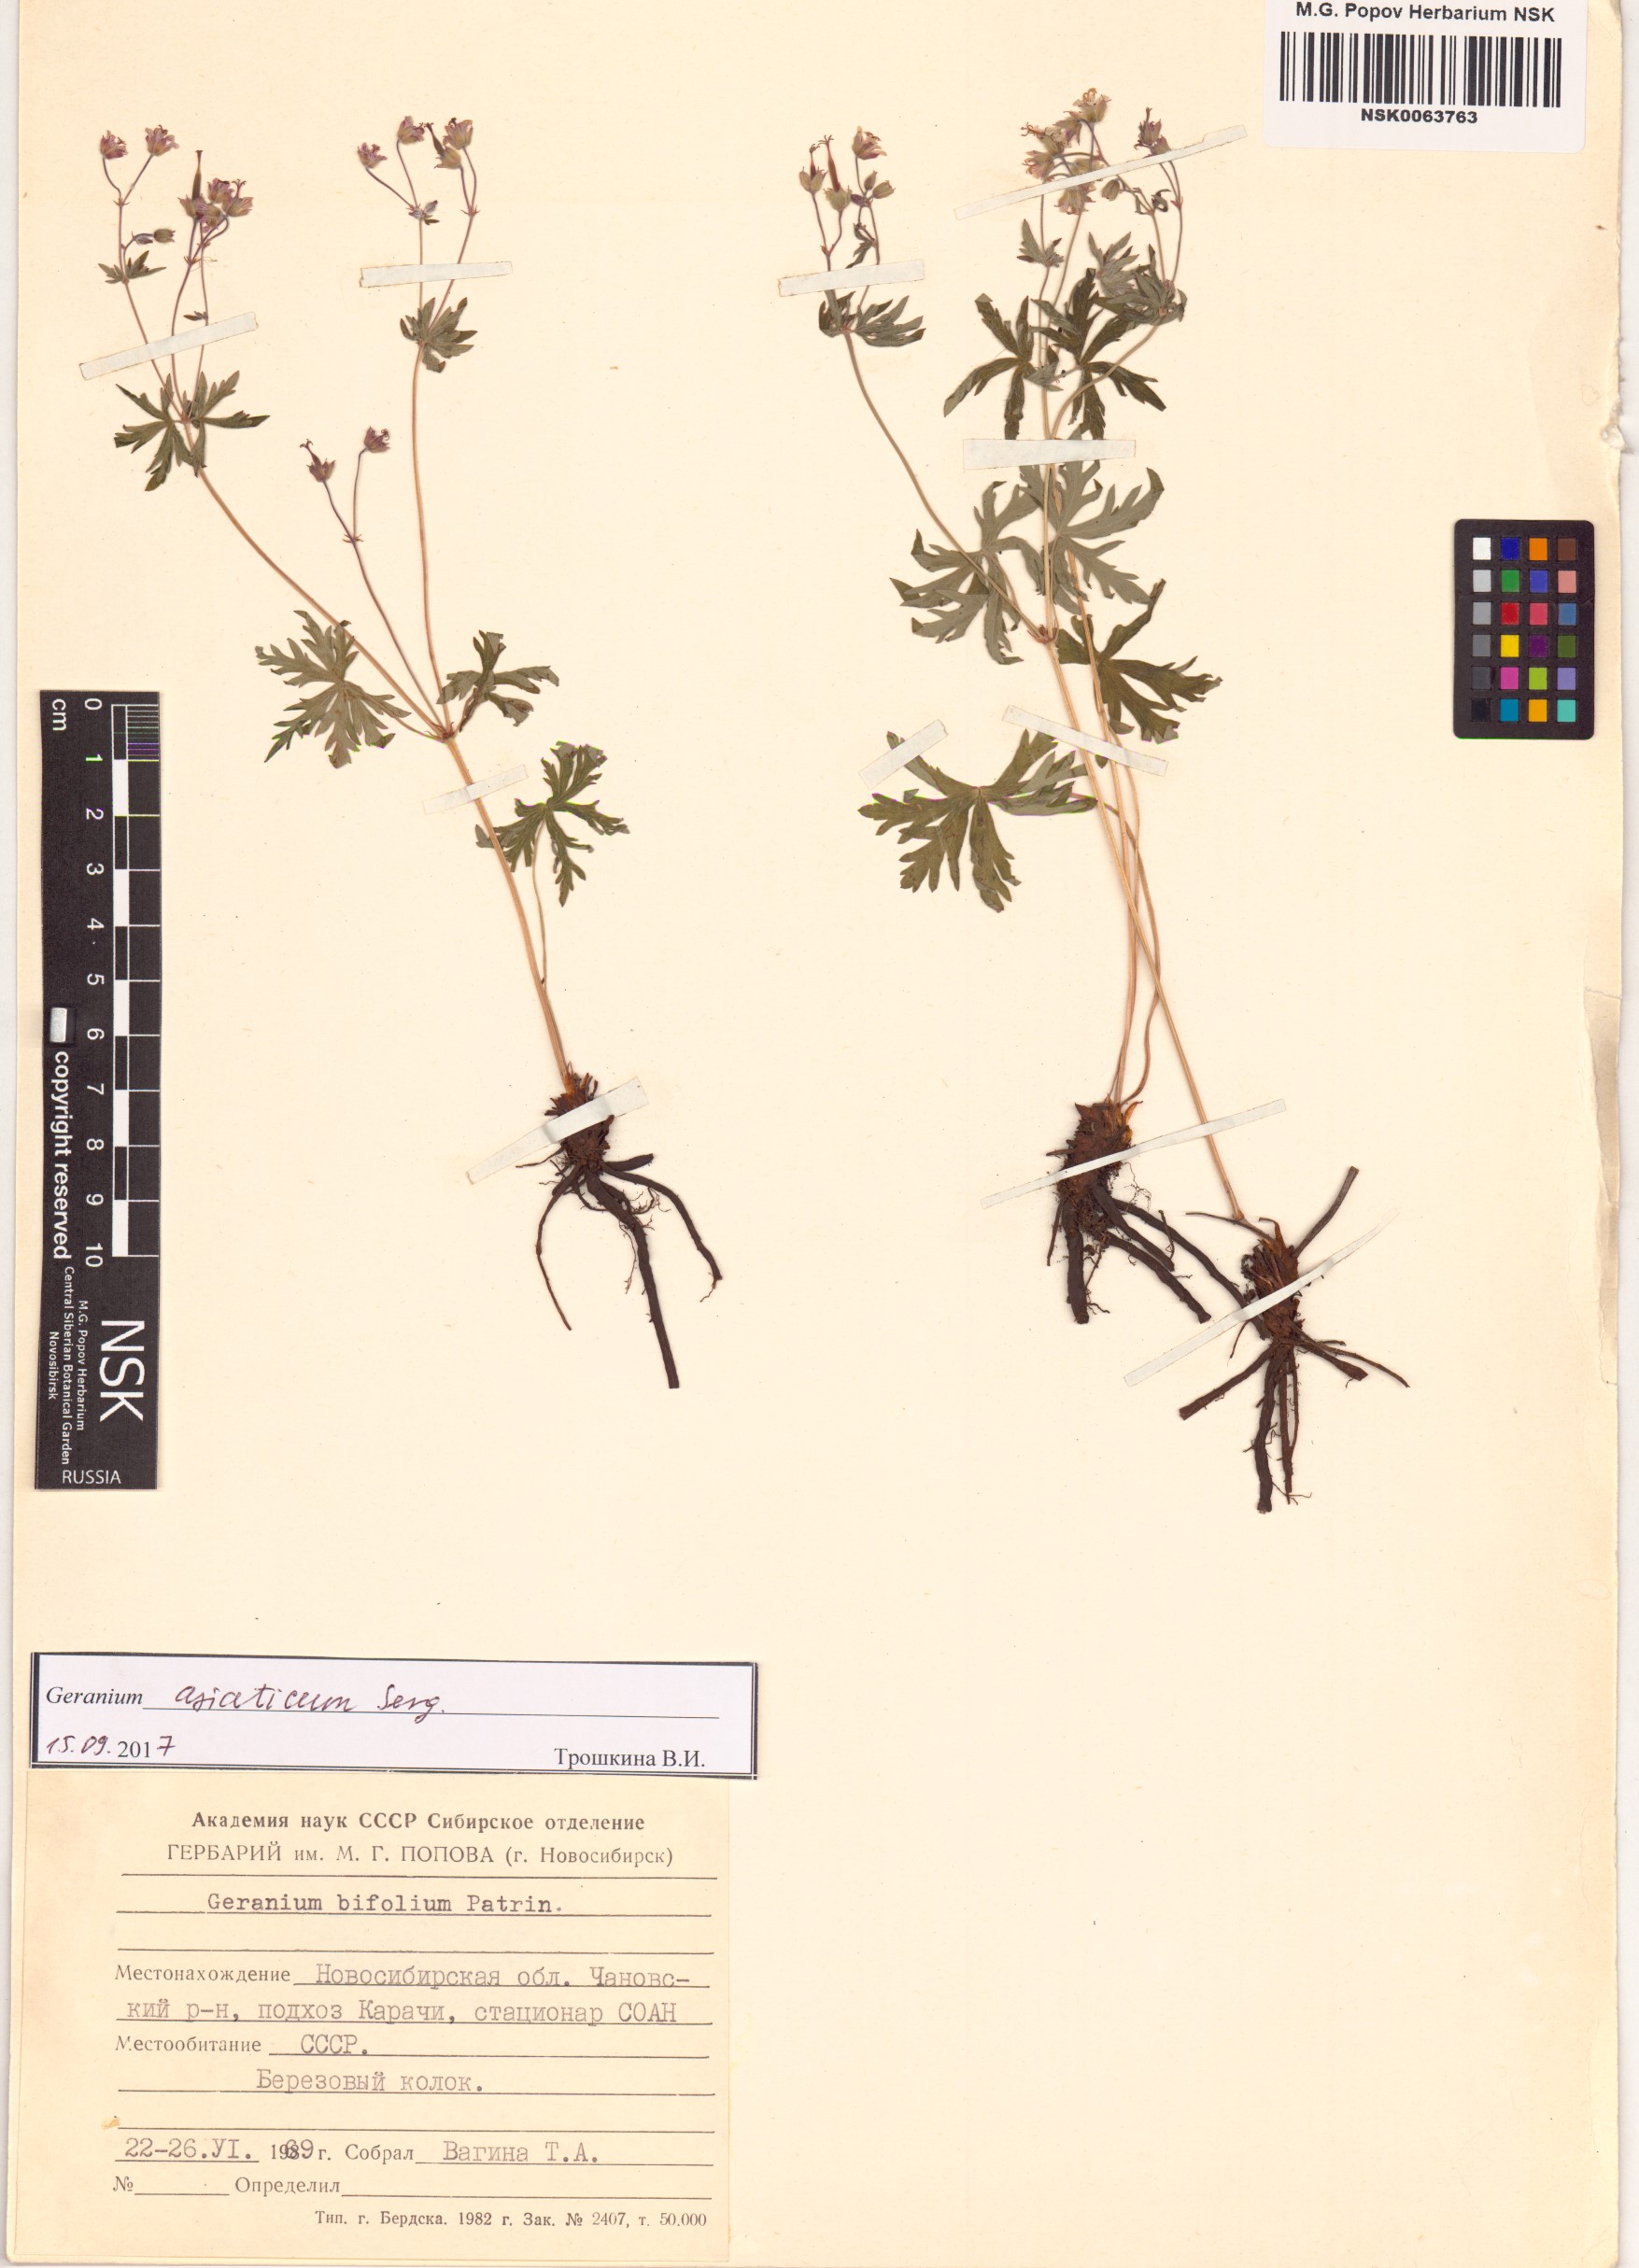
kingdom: Plantae
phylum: Tracheophyta
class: Magnoliopsida
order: Geraniales
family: Geraniaceae
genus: Geranium
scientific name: Geranium pseudosibiricum
